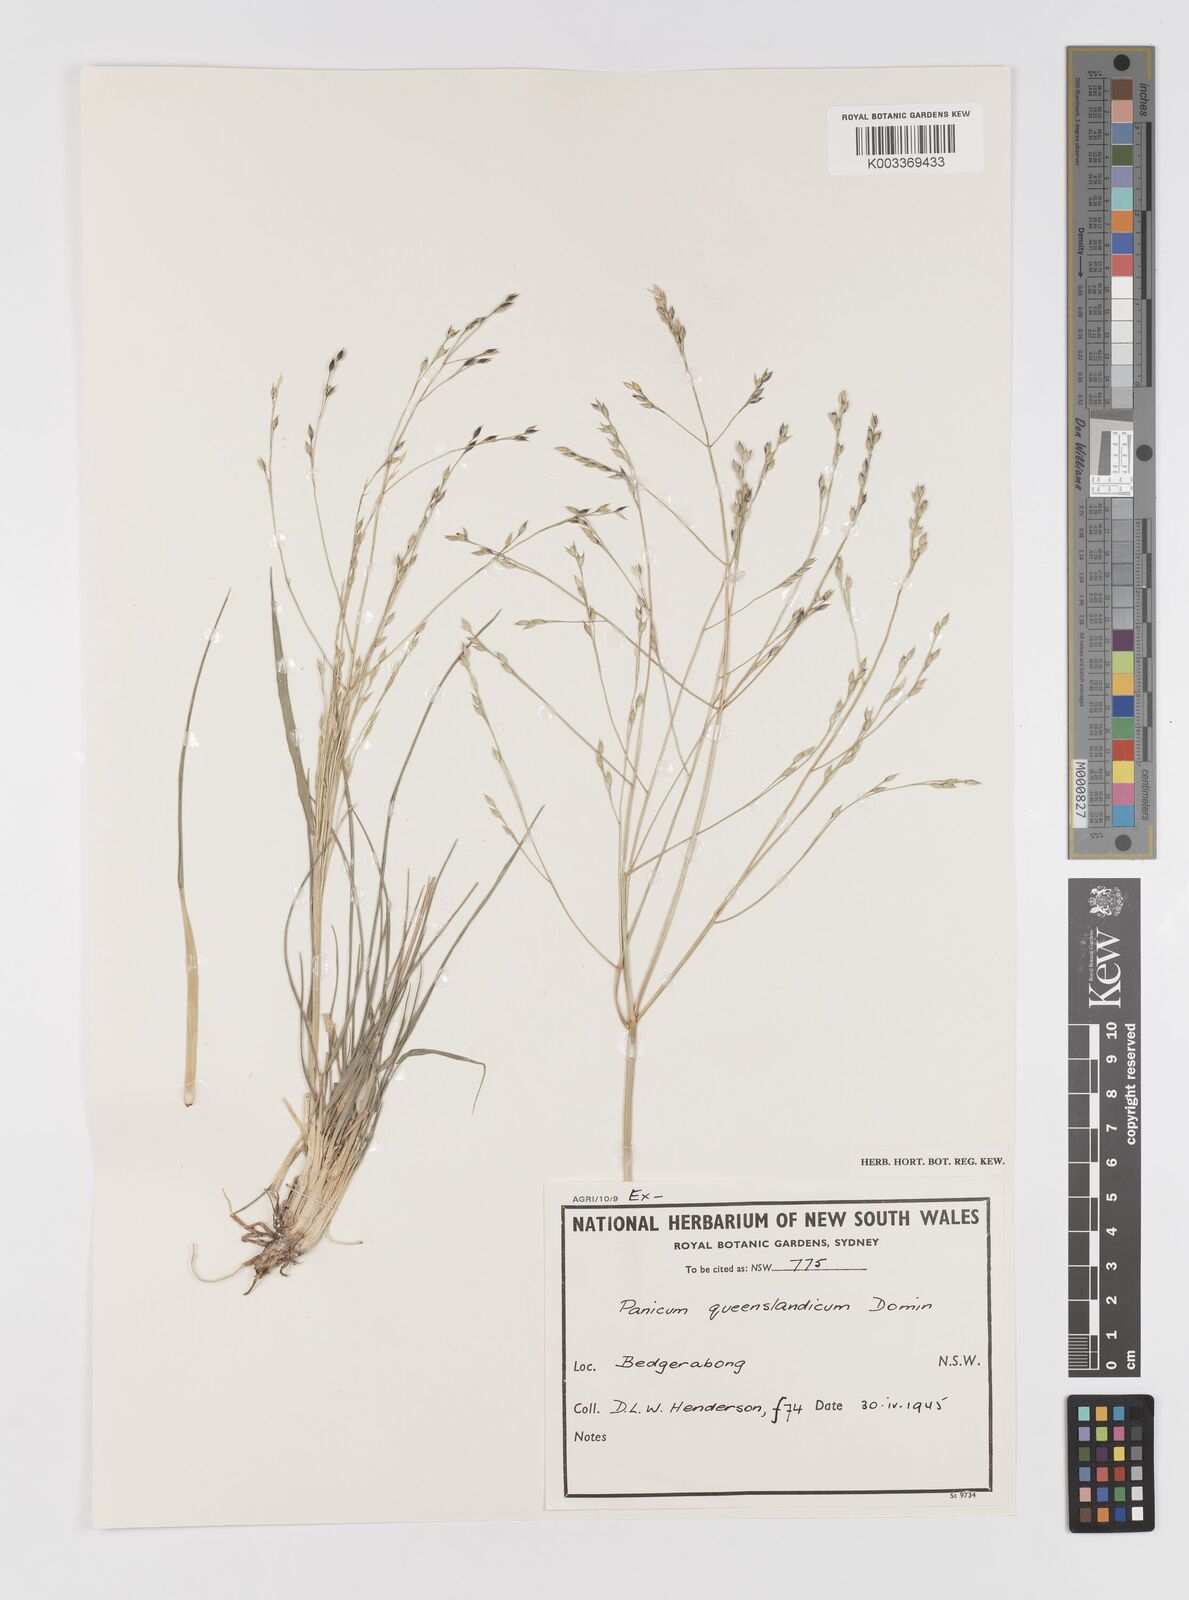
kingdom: Plantae
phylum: Tracheophyta
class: Liliopsida
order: Poales
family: Poaceae
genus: Panicum
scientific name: Panicum queenslandicum
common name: Yabila grass
